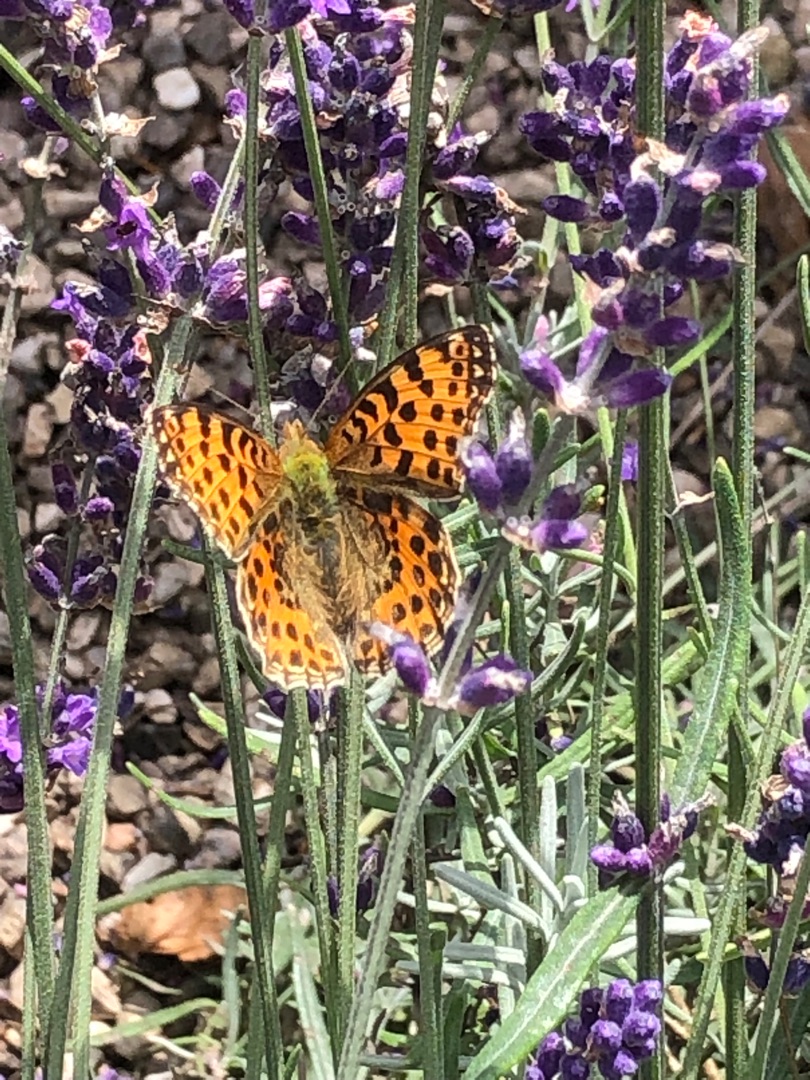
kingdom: Animalia
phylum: Arthropoda
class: Insecta
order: Lepidoptera
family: Nymphalidae
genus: Issoria
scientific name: Issoria lathonia
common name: Storplettet perlemorsommerfugl
